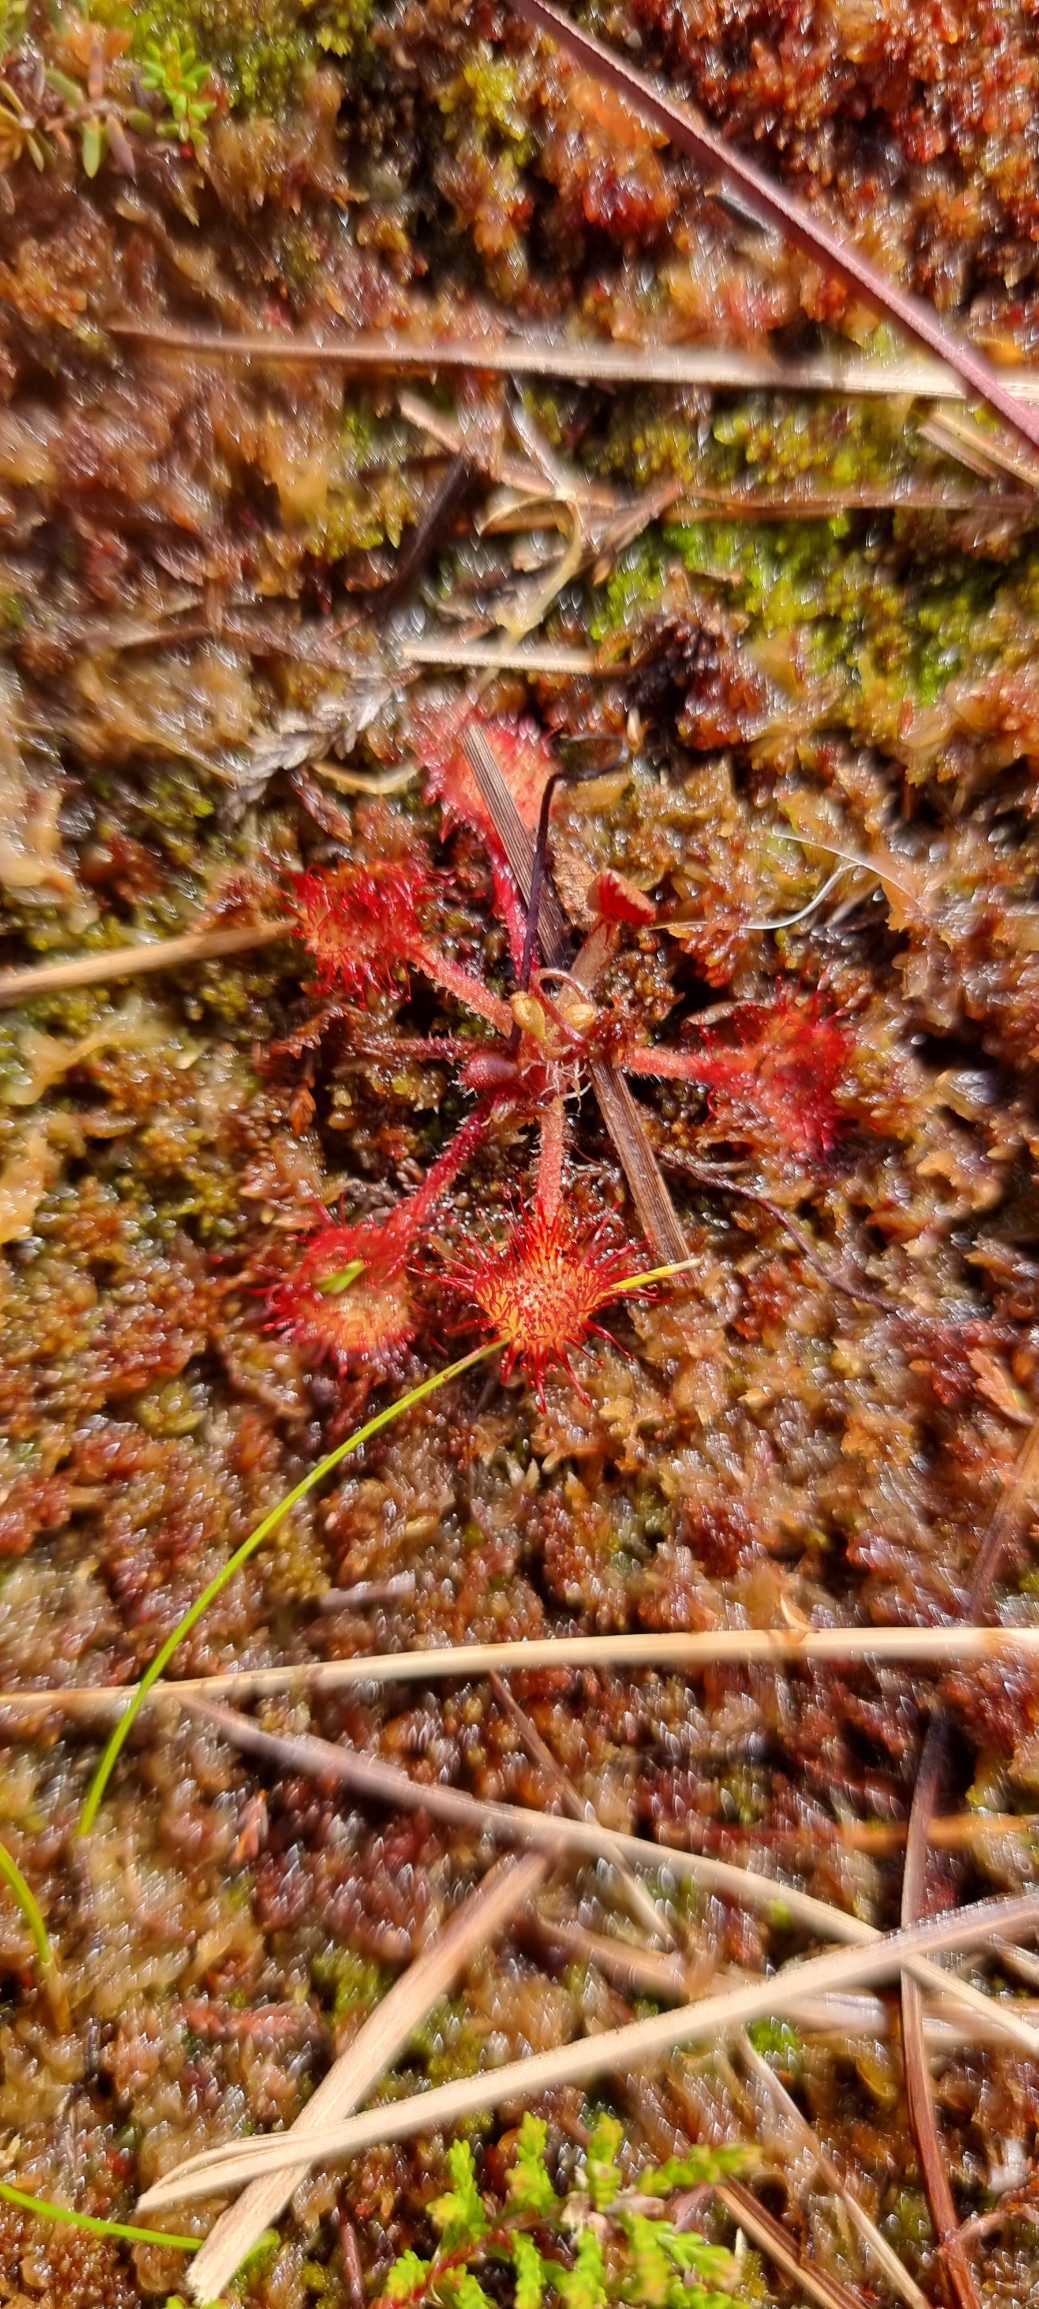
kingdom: Plantae
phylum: Tracheophyta
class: Magnoliopsida
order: Caryophyllales
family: Droseraceae
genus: Drosera
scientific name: Drosera rotundifolia
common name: Rundbladet soldug
